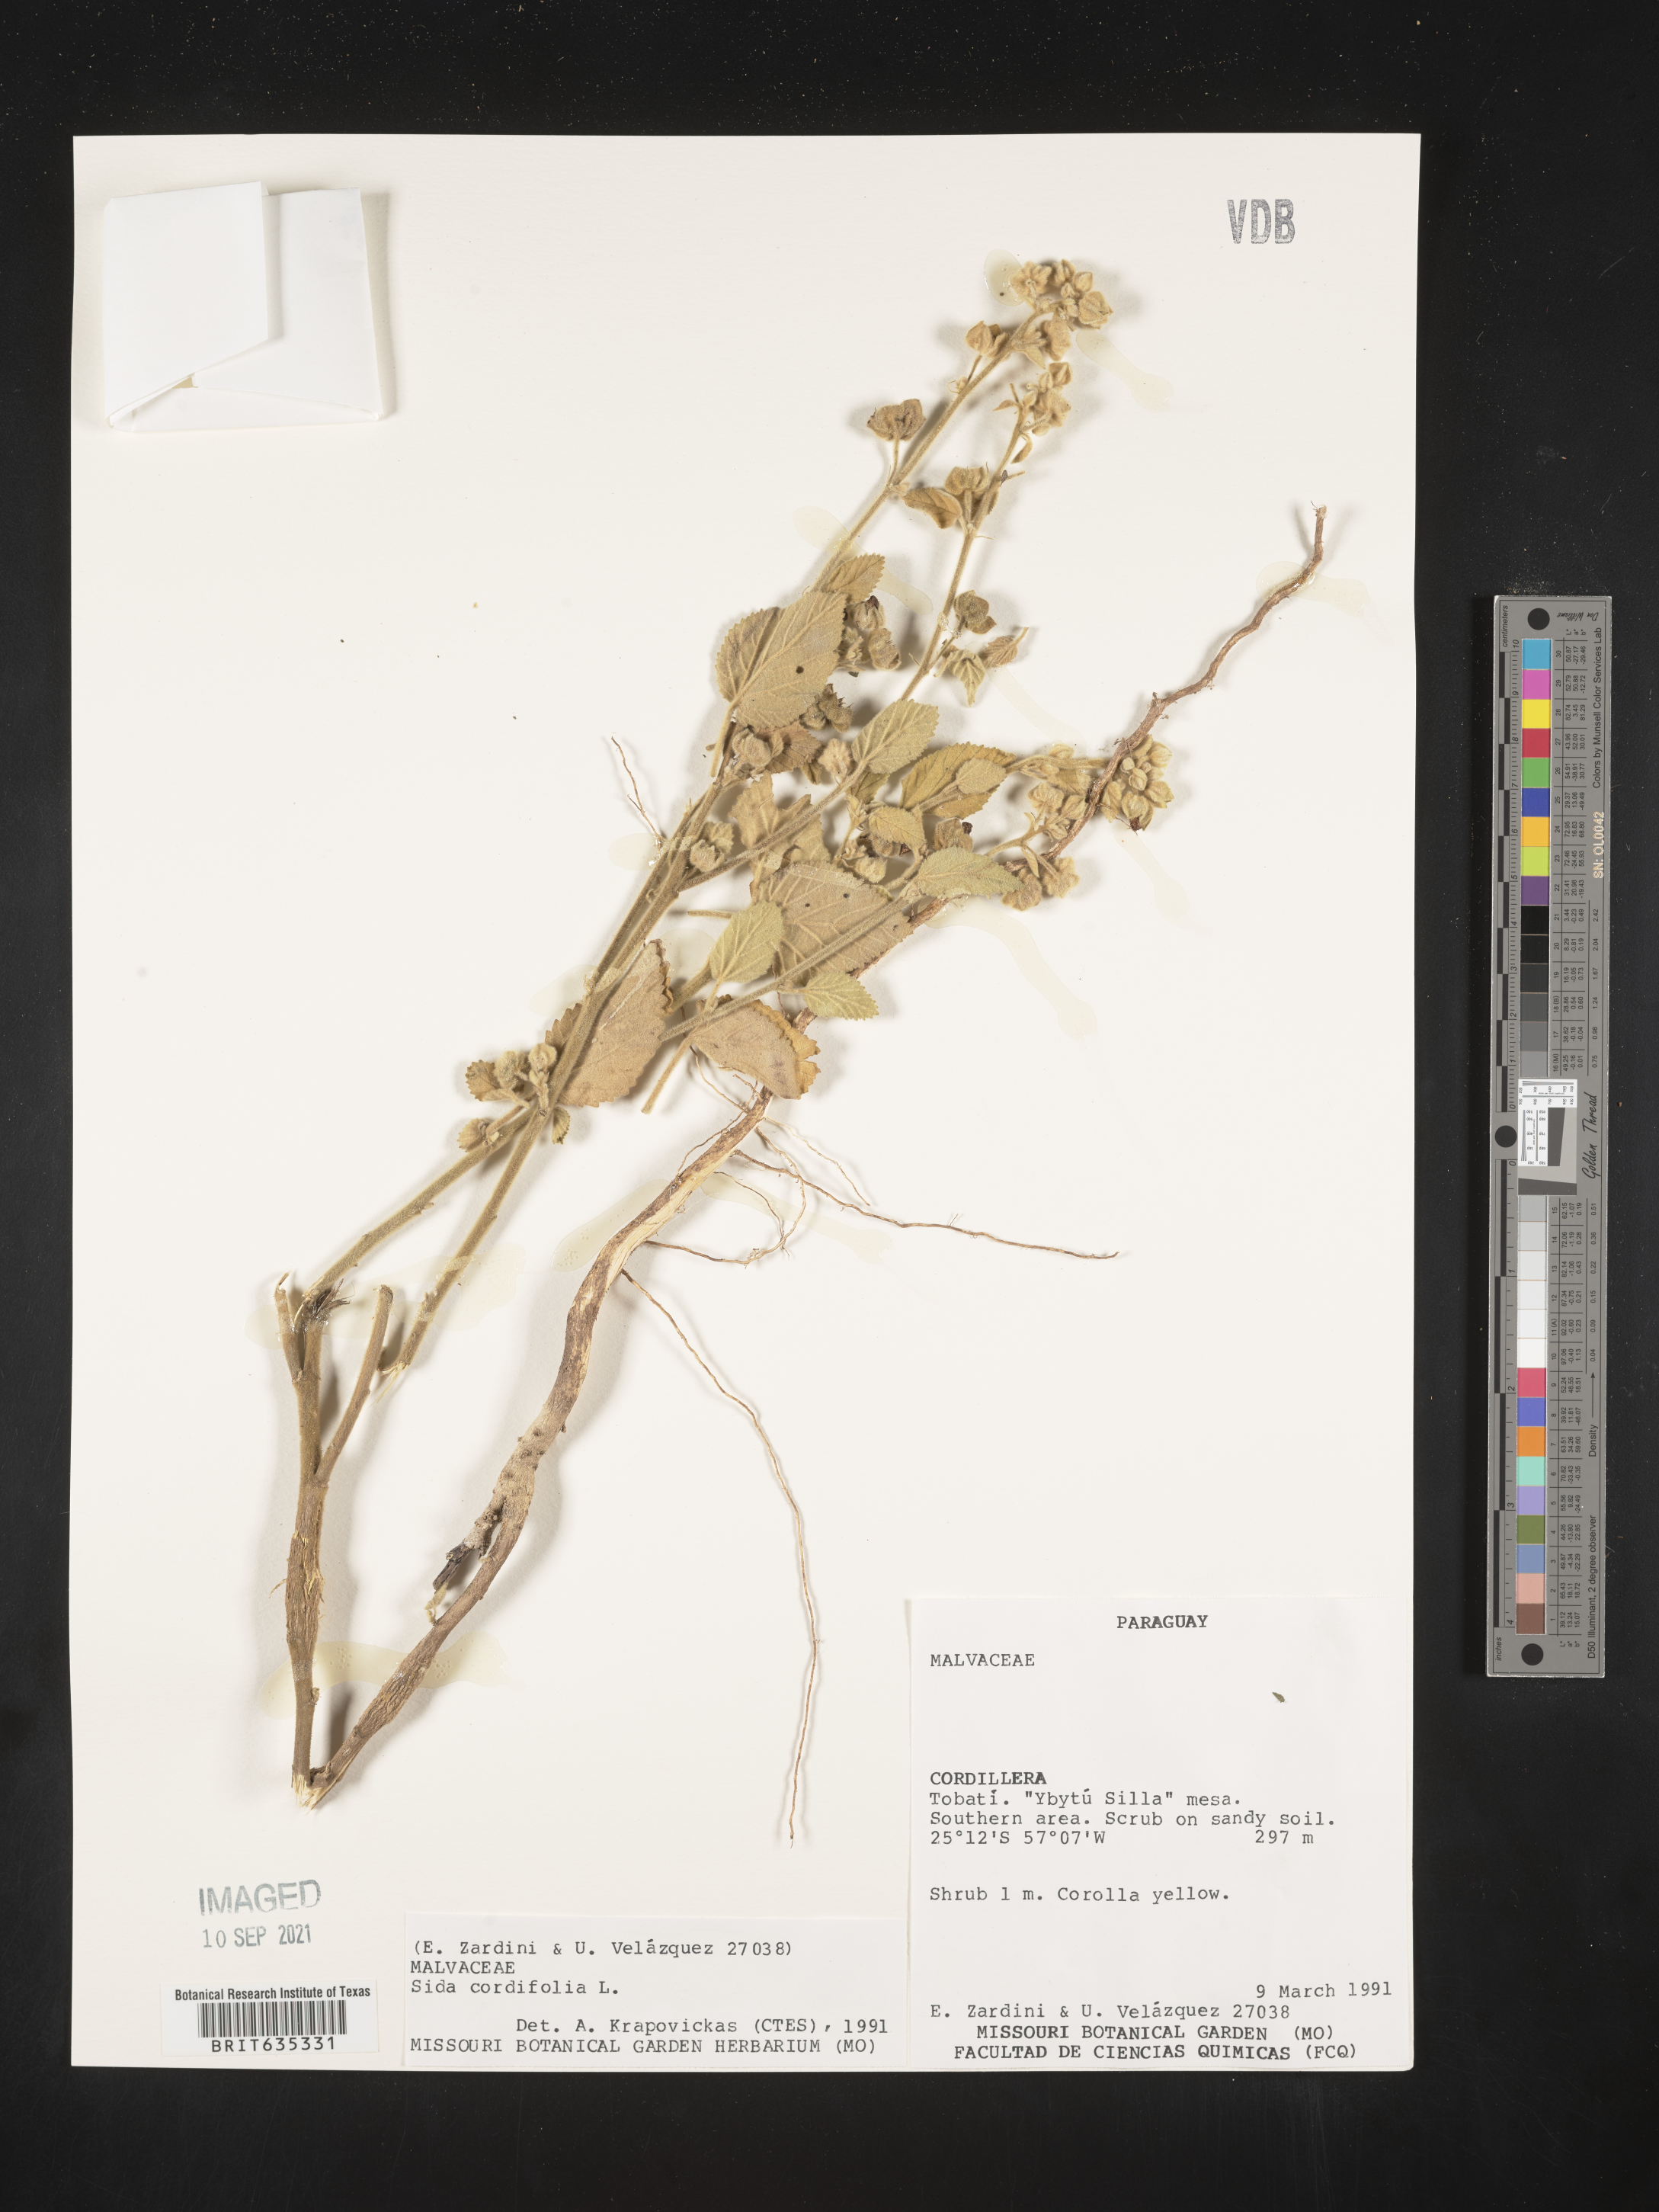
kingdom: Plantae
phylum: Tracheophyta
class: Magnoliopsida
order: Malvales
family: Malvaceae
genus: Sida
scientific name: Sida
